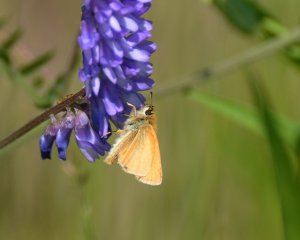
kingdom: Animalia
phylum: Arthropoda
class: Insecta
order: Lepidoptera
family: Hesperiidae
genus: Thymelicus
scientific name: Thymelicus lineola
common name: European Skipper
